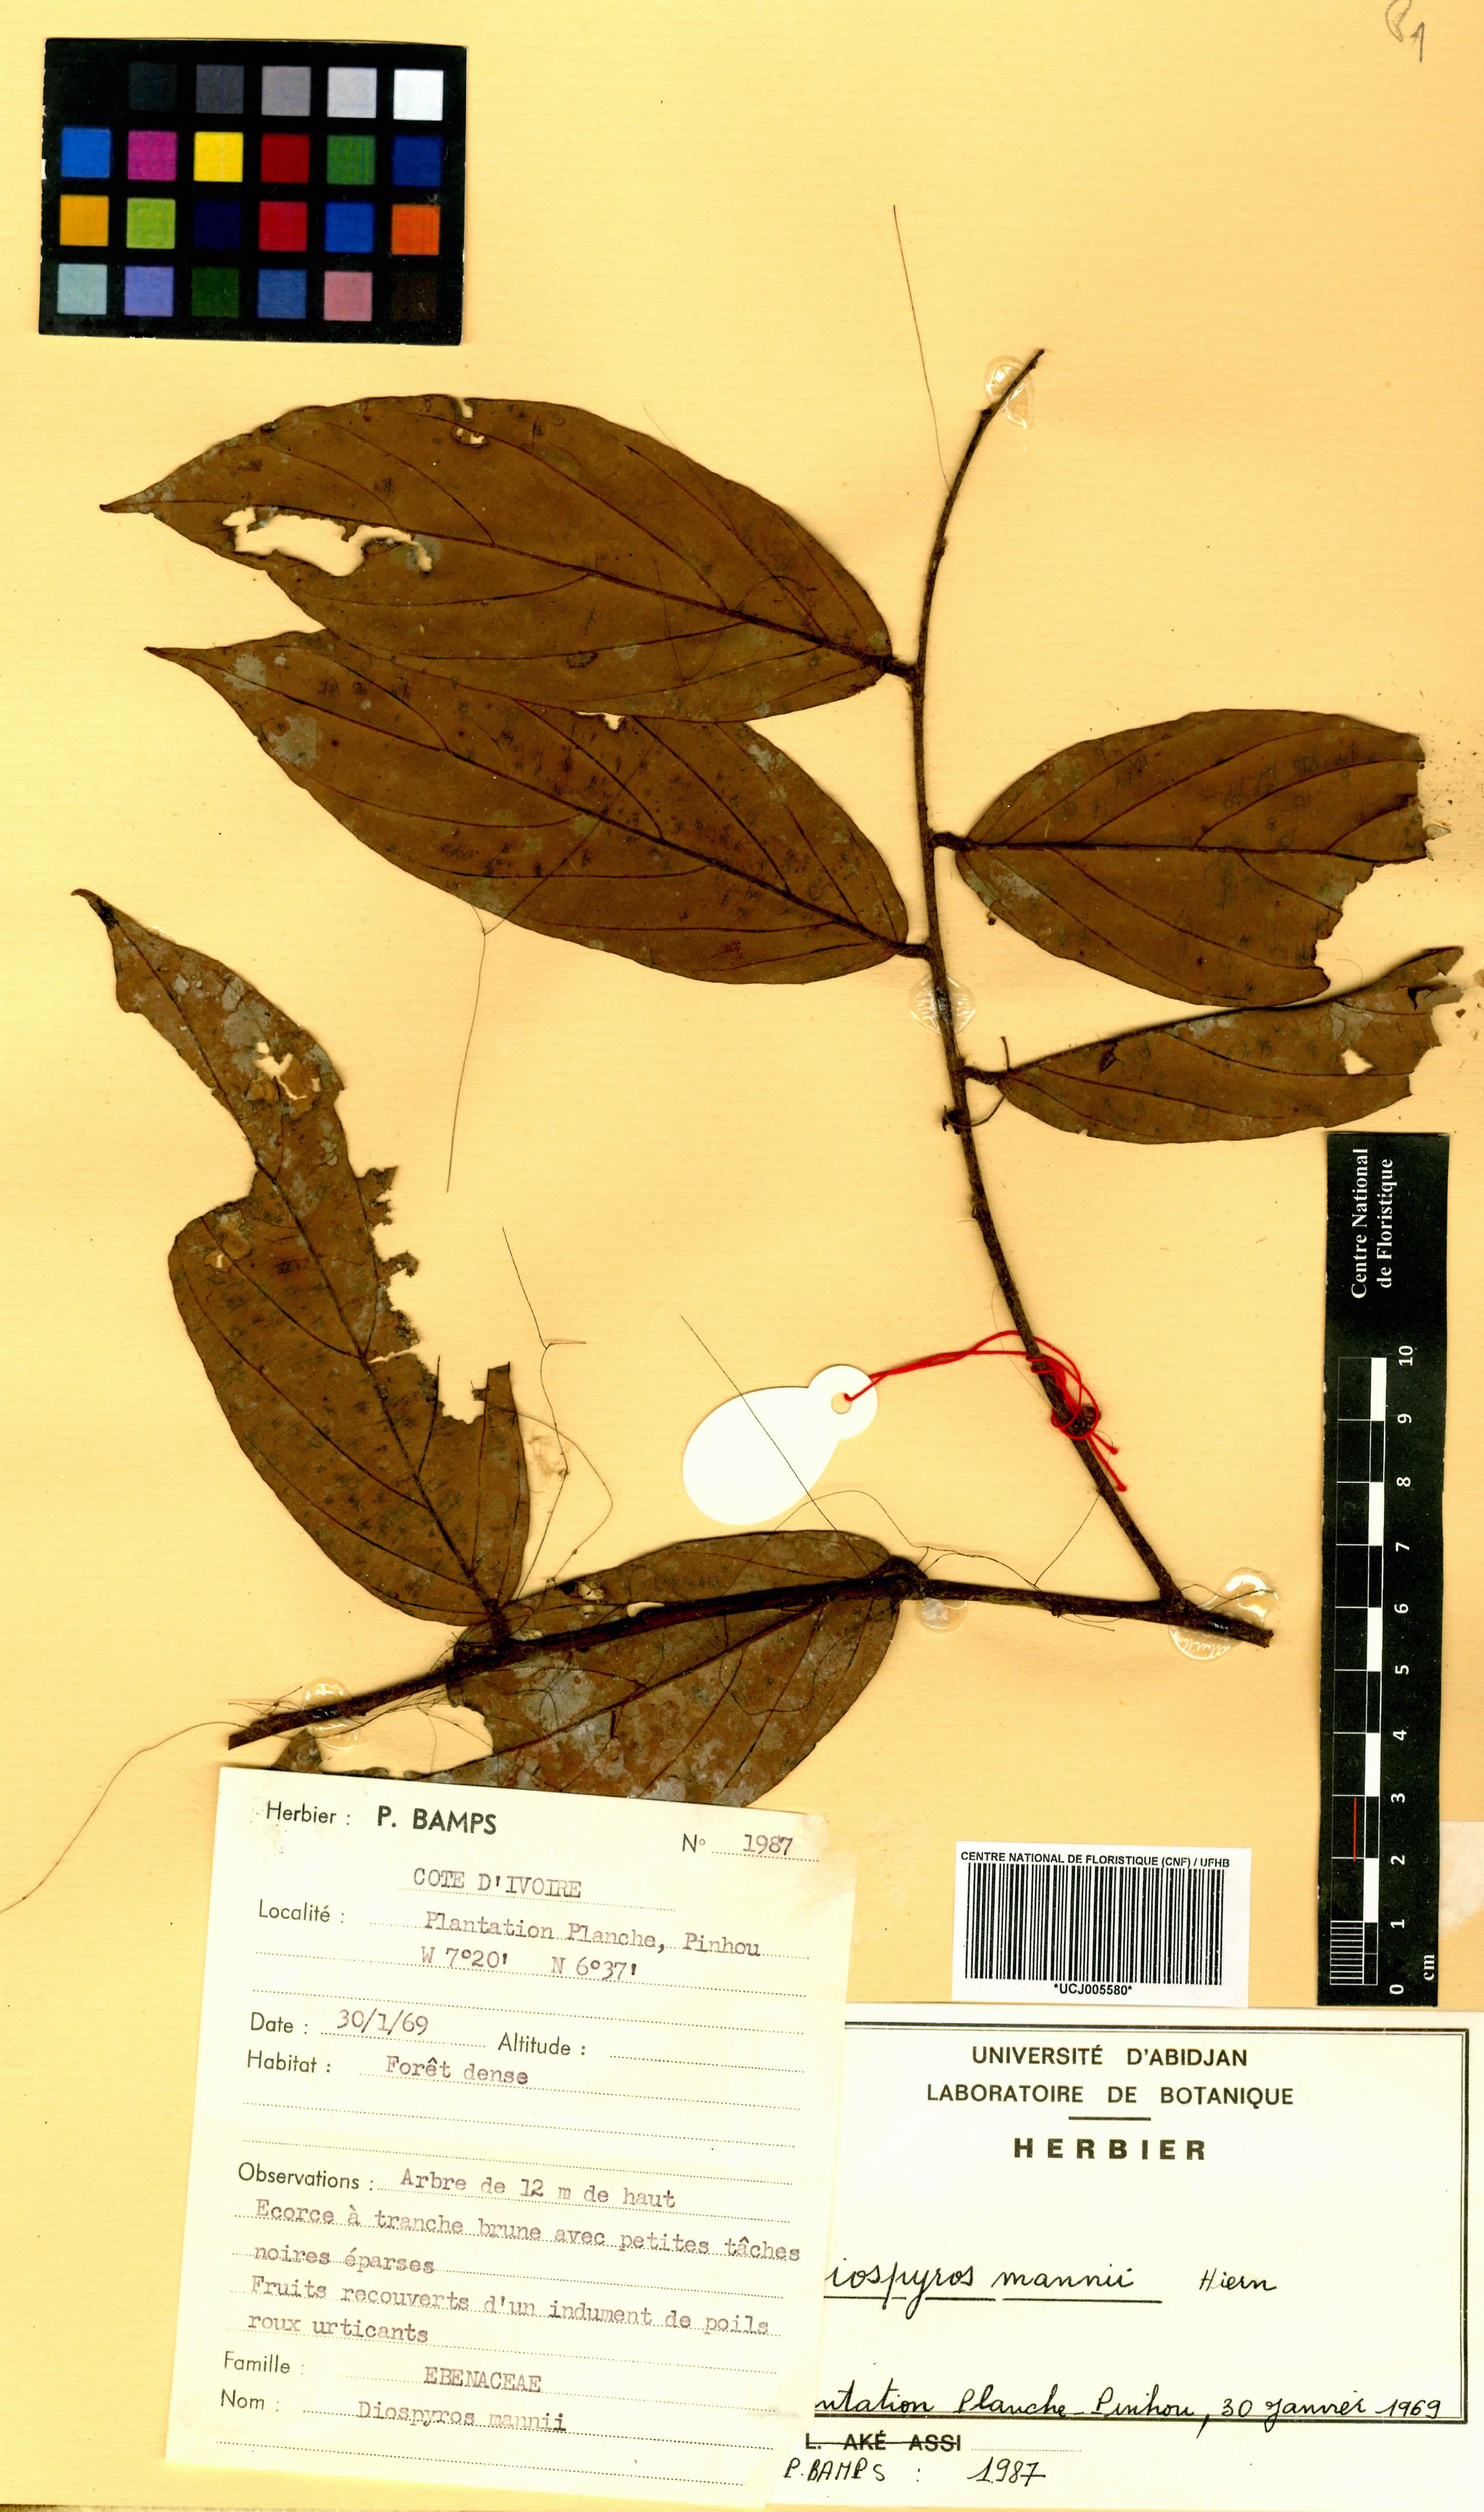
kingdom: Plantae
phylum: Tracheophyta
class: Magnoliopsida
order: Ericales
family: Ebenaceae
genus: Diospyros
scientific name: Diospyros mannii
